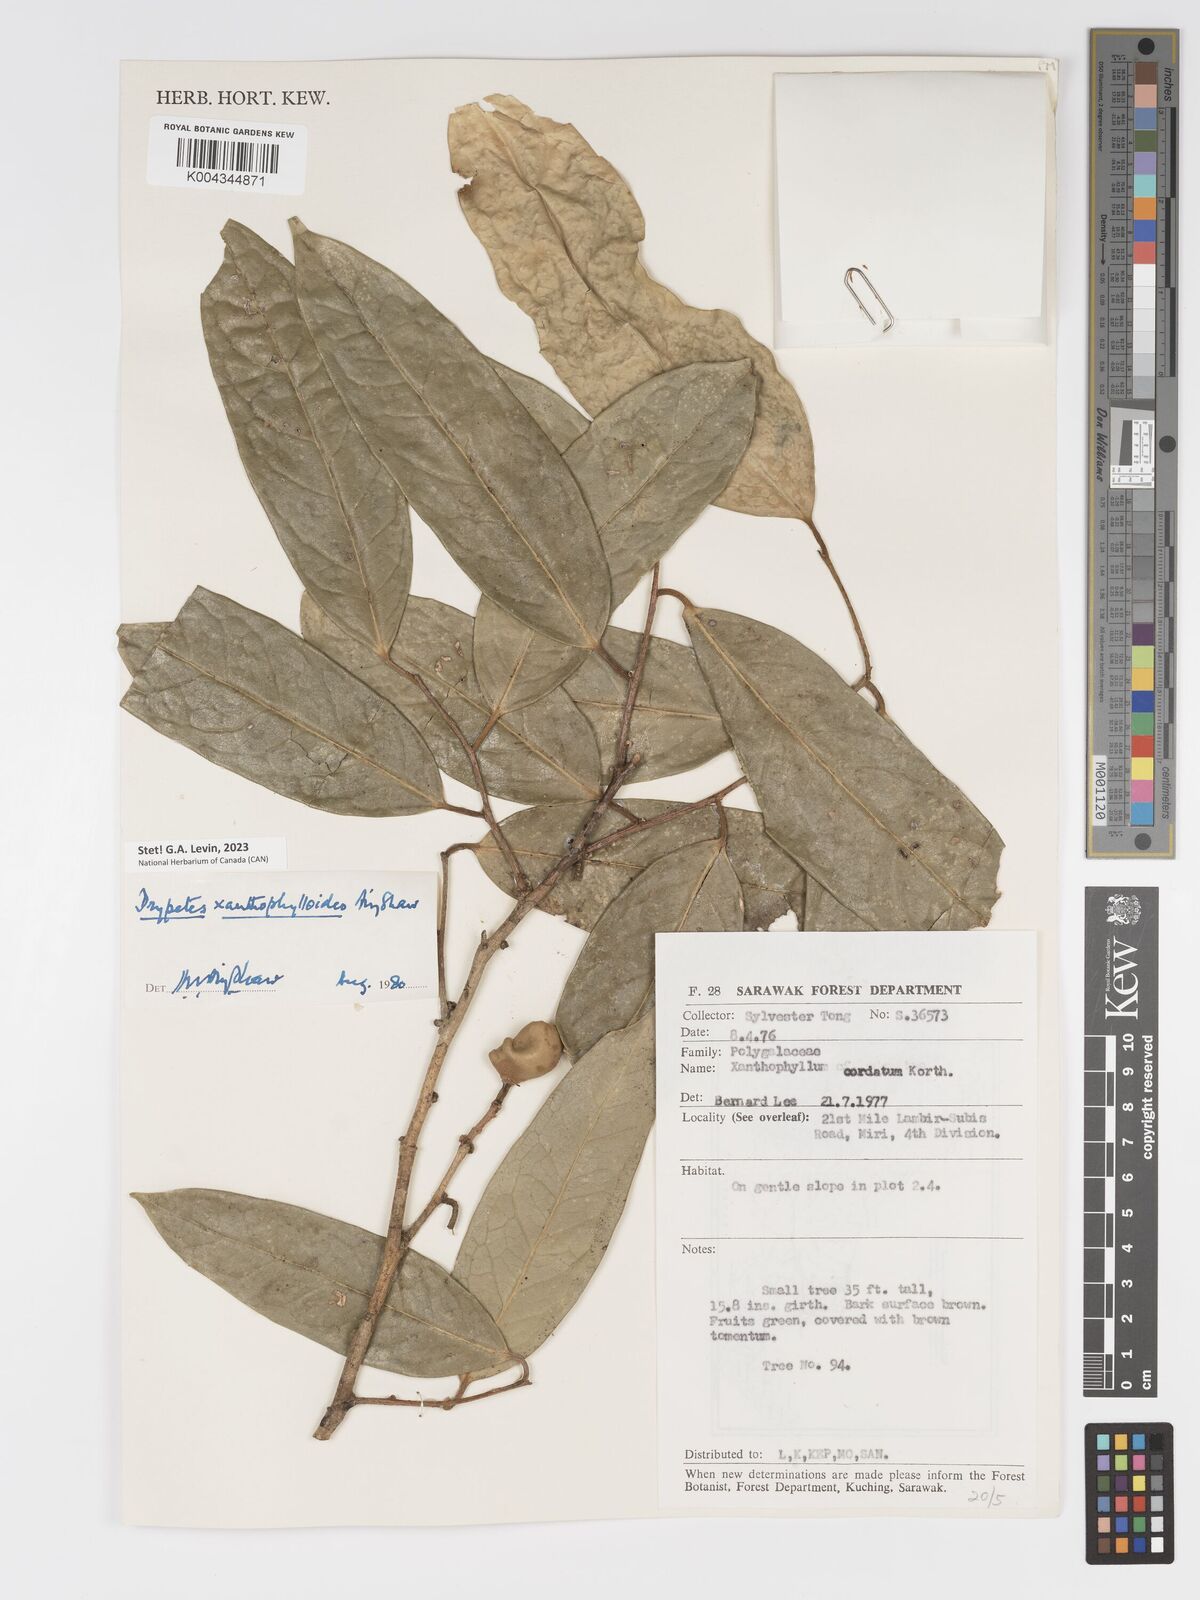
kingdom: Plantae
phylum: Tracheophyta
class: Magnoliopsida
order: Malpighiales
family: Putranjivaceae
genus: Drypetes
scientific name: Drypetes xanthophylloides
